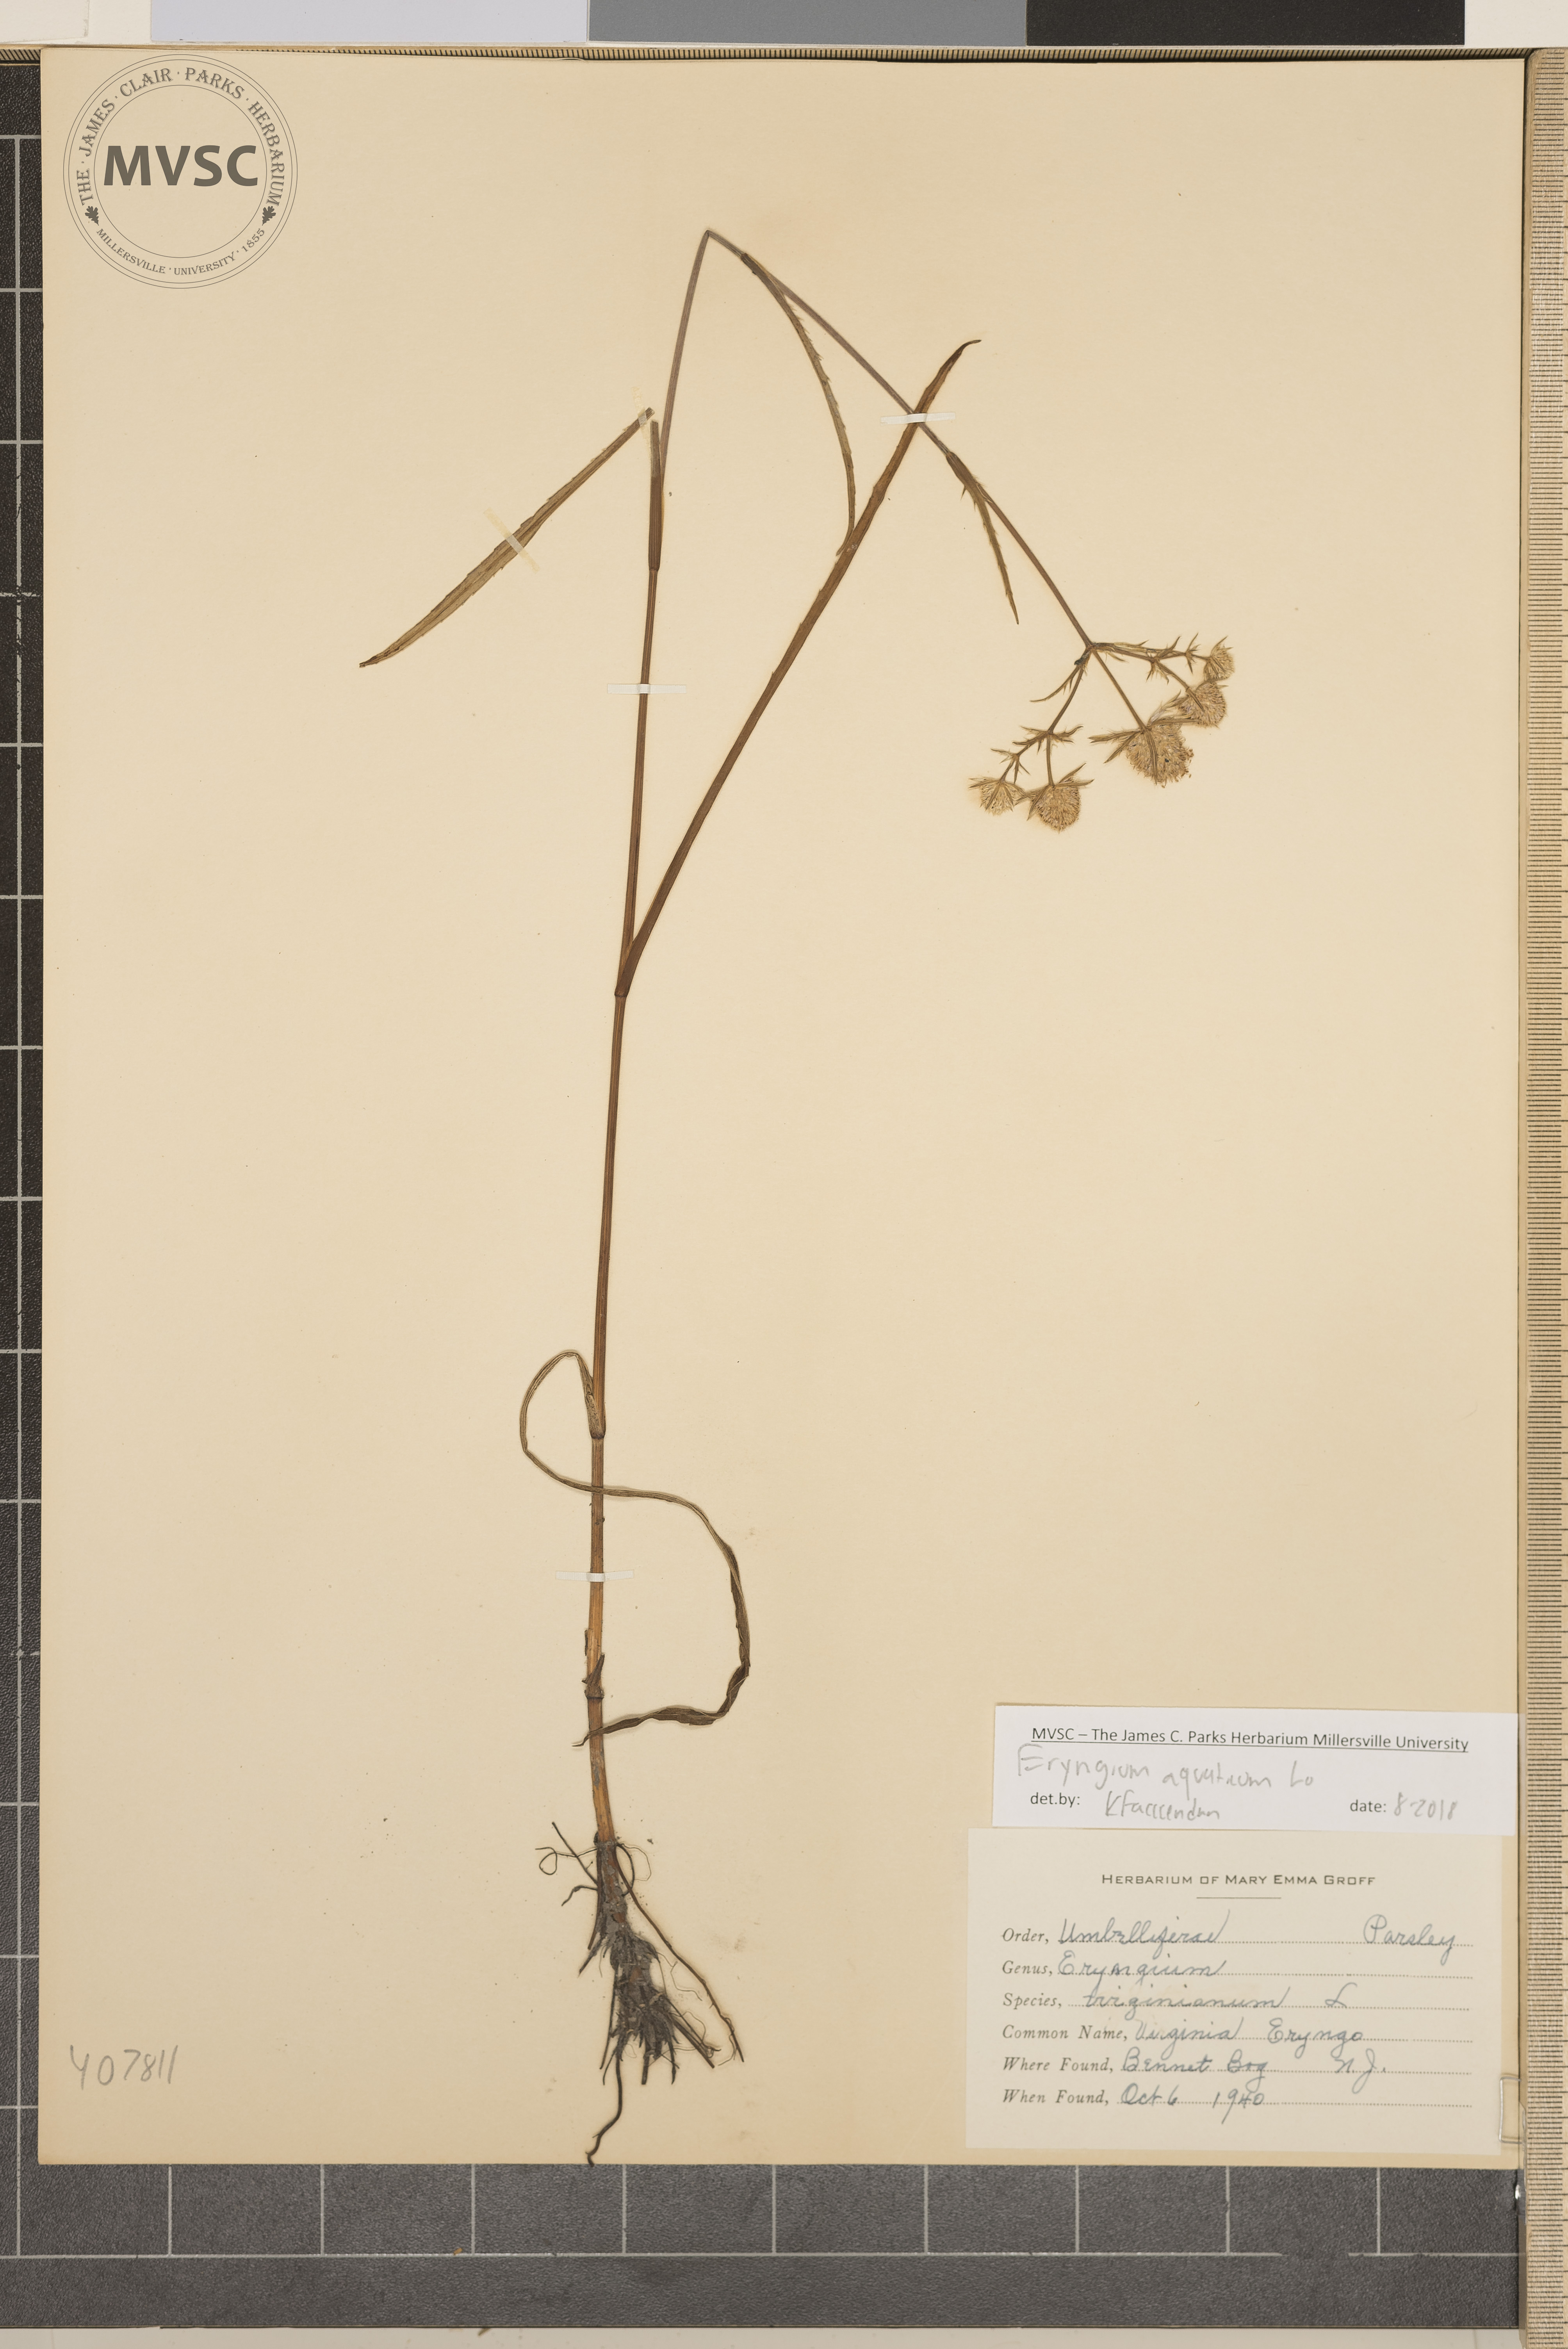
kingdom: Plantae
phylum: Tracheophyta
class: Magnoliopsida
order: Apiales
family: Apiaceae
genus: Eryngium
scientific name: Eryngium aquaticum
